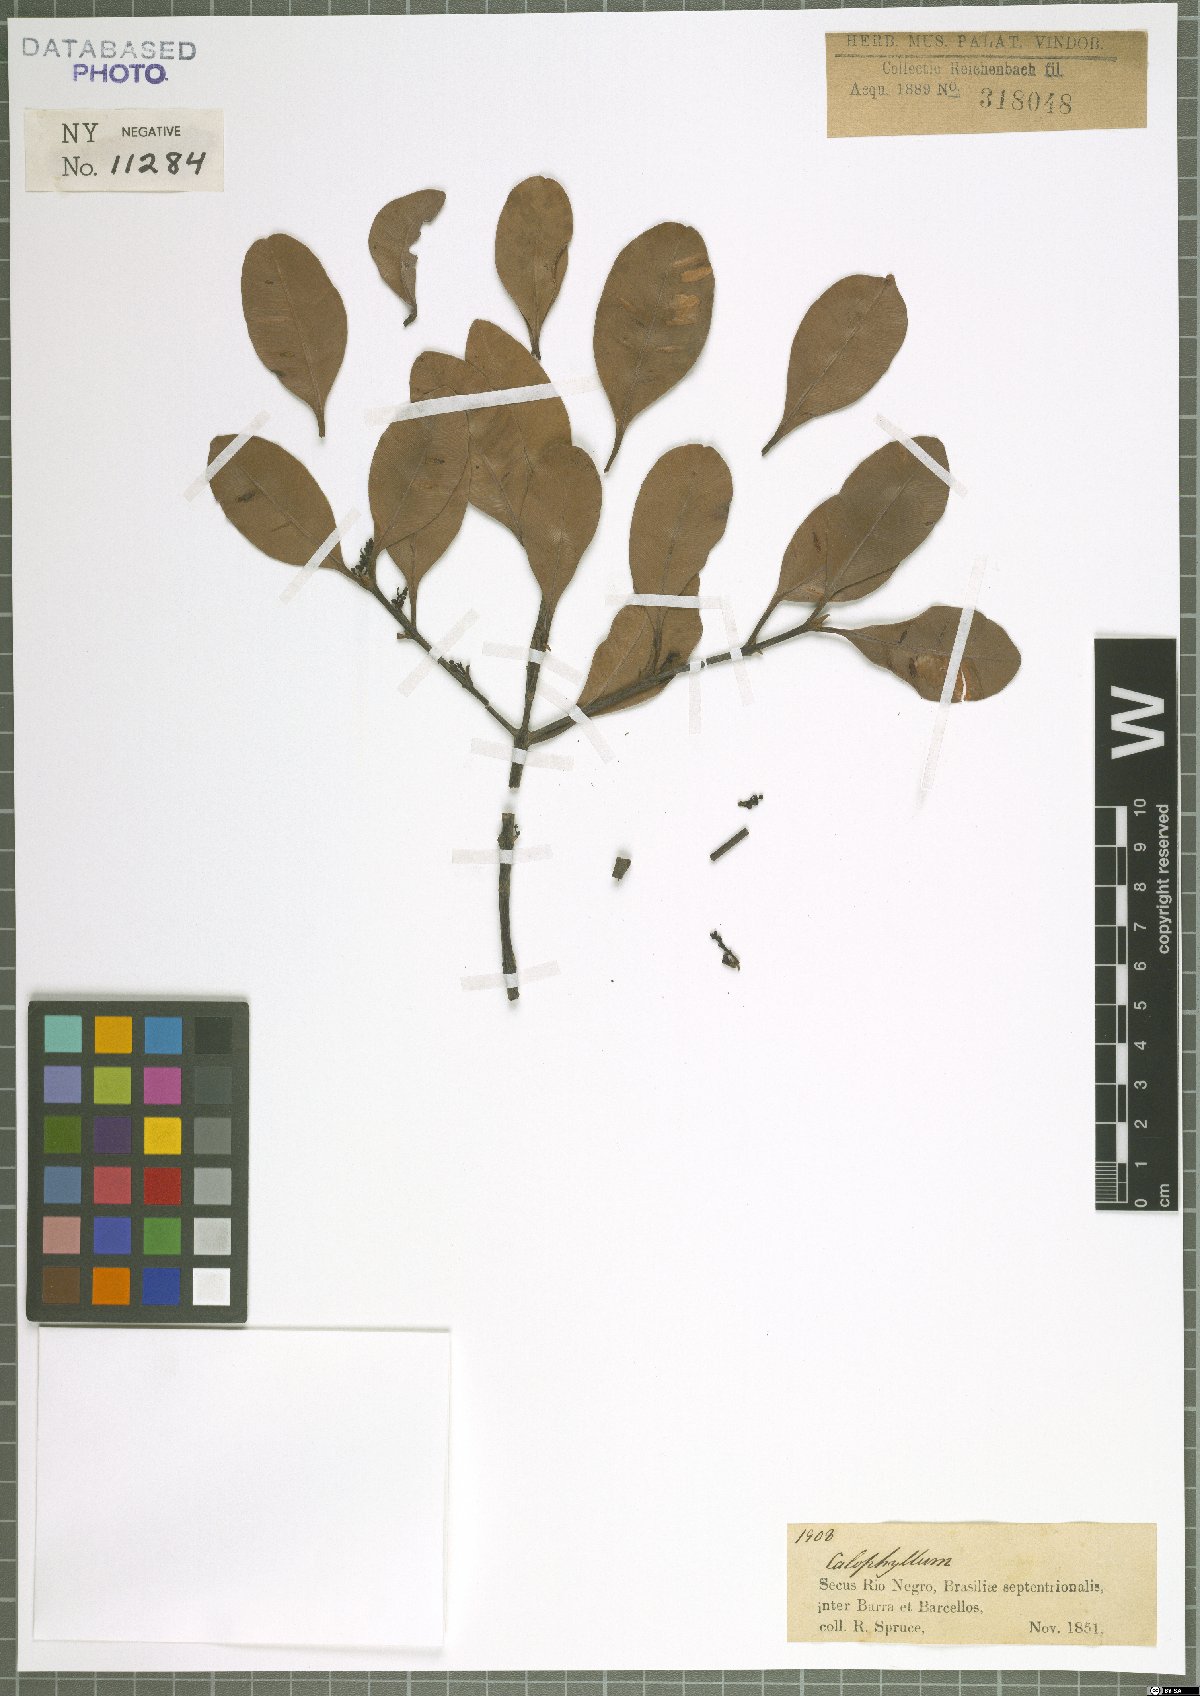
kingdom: Plantae
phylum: Tracheophyta
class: Magnoliopsida
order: Malpighiales
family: Calophyllaceae
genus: Calophyllum
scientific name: Calophyllum
